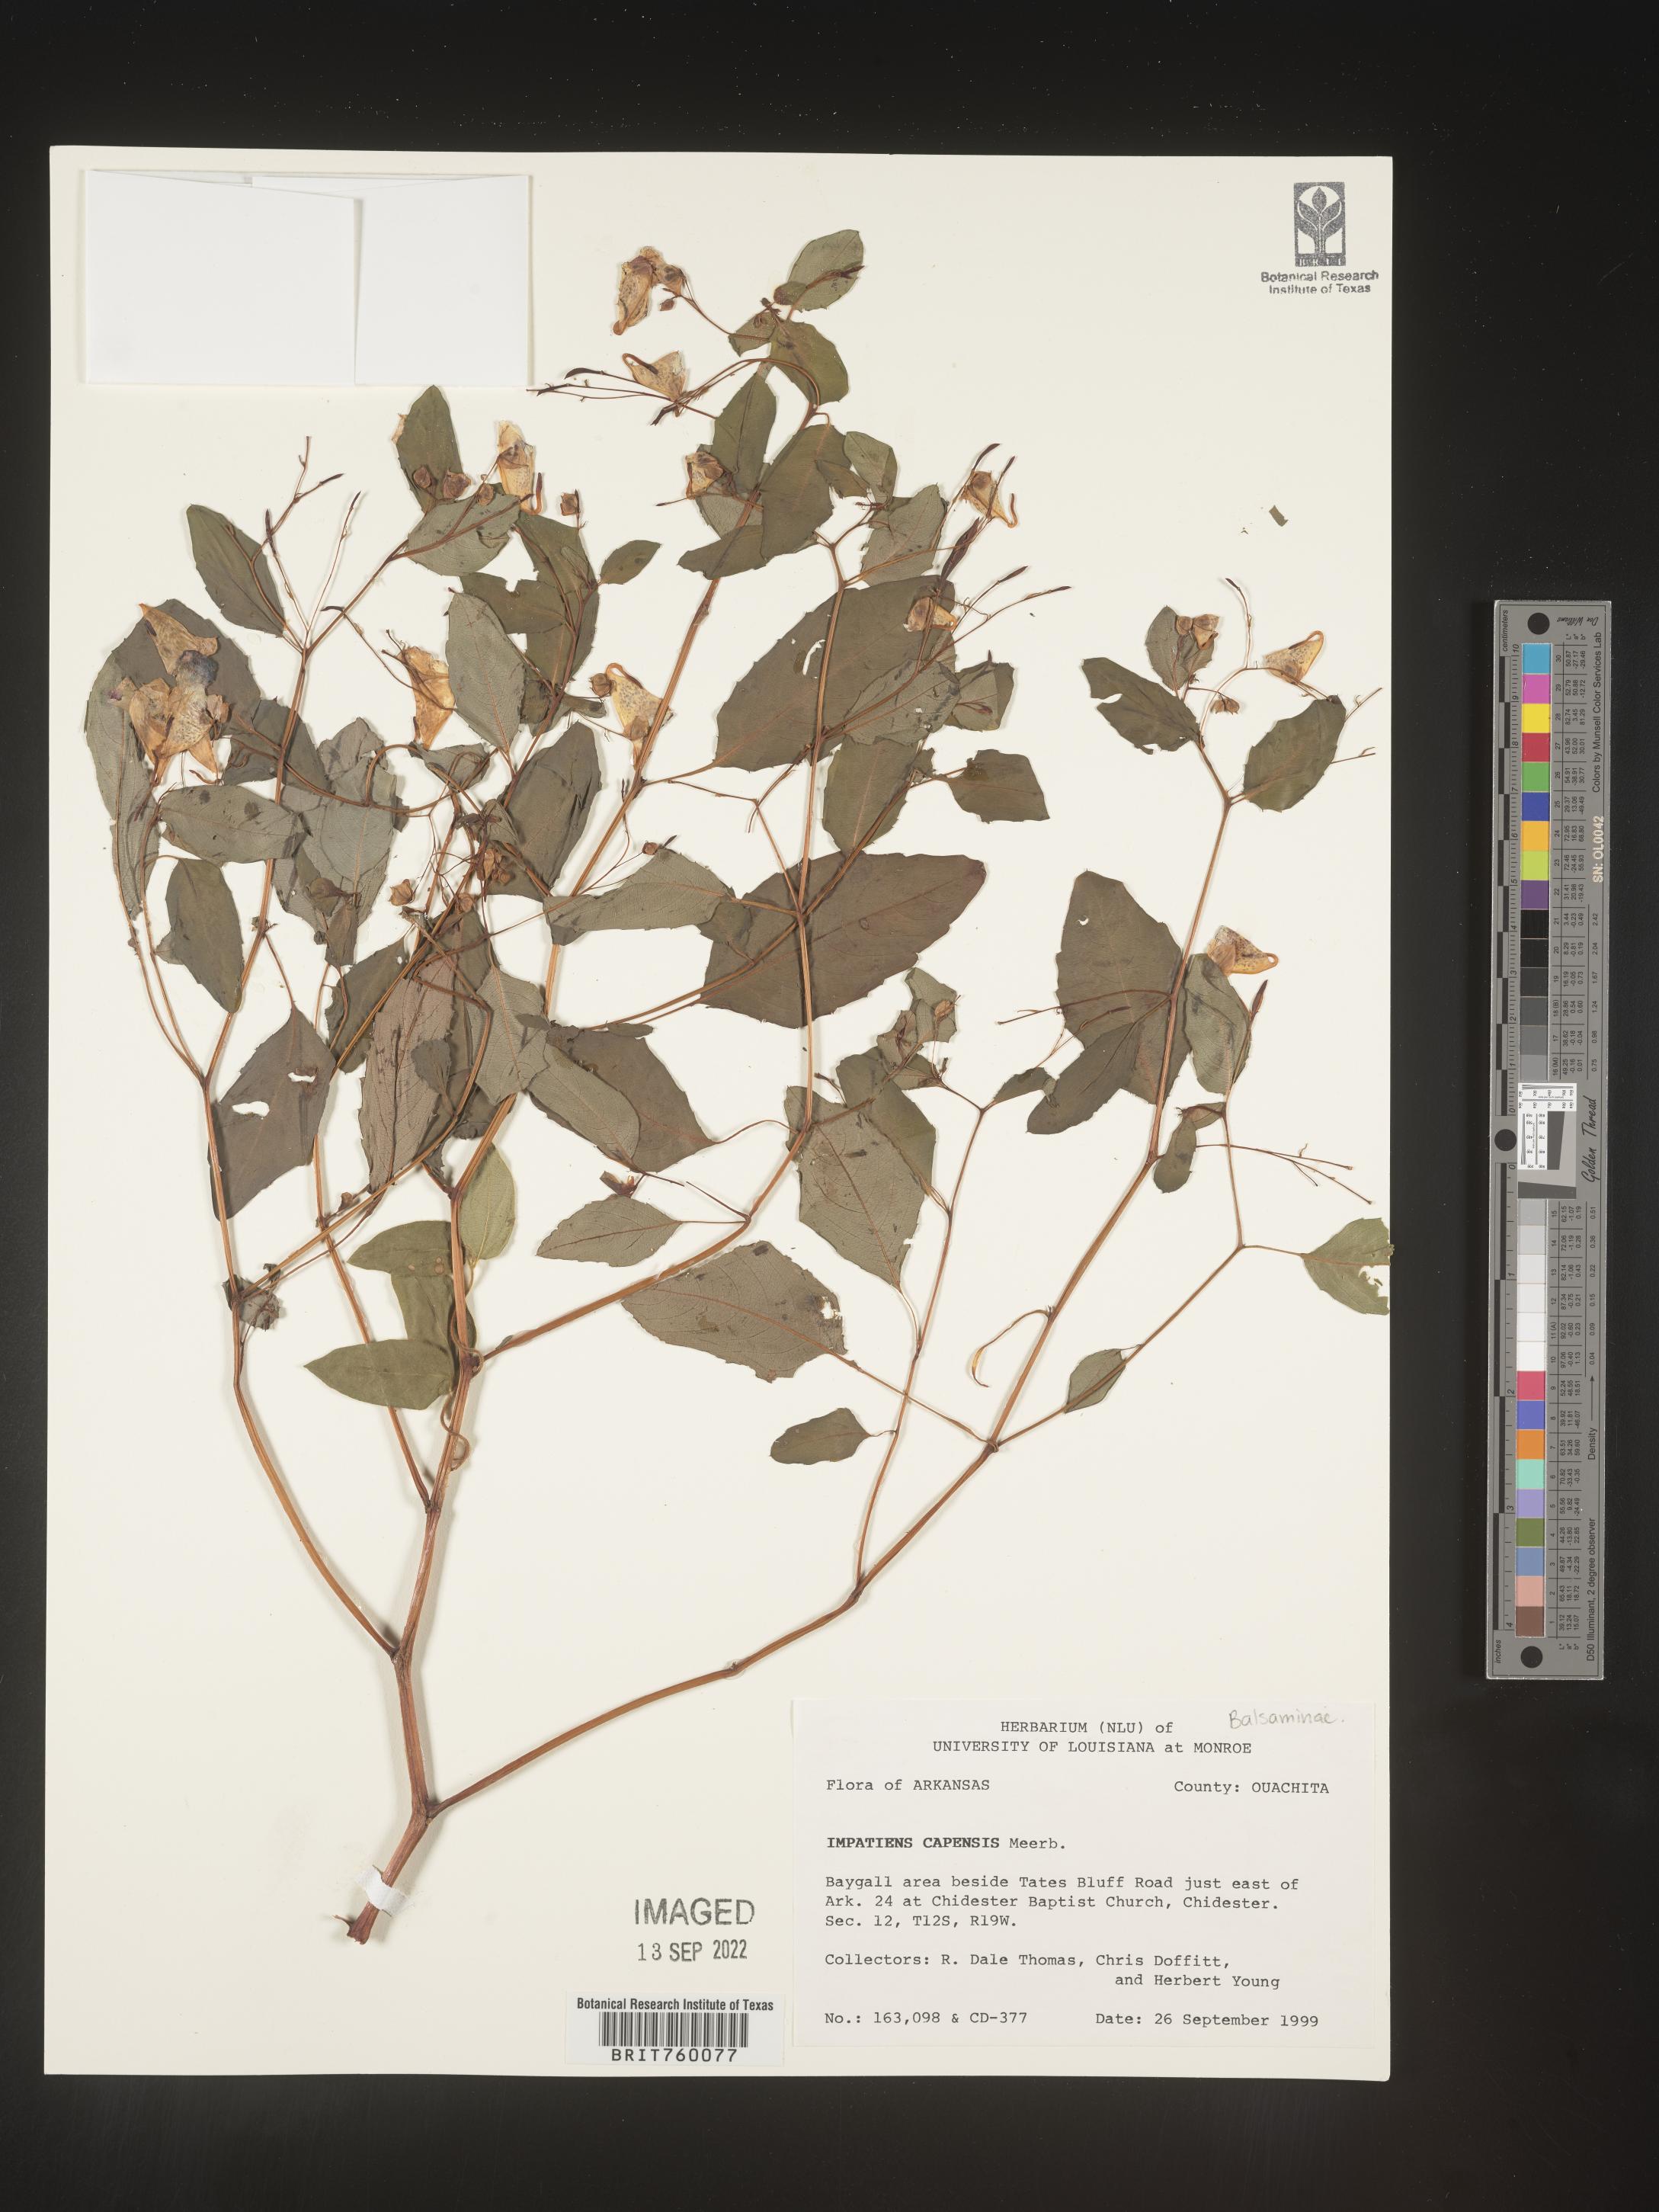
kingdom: Plantae
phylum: Tracheophyta
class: Magnoliopsida
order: Ericales
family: Balsaminaceae
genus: Impatiens
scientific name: Impatiens capensis
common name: Orange balsam
